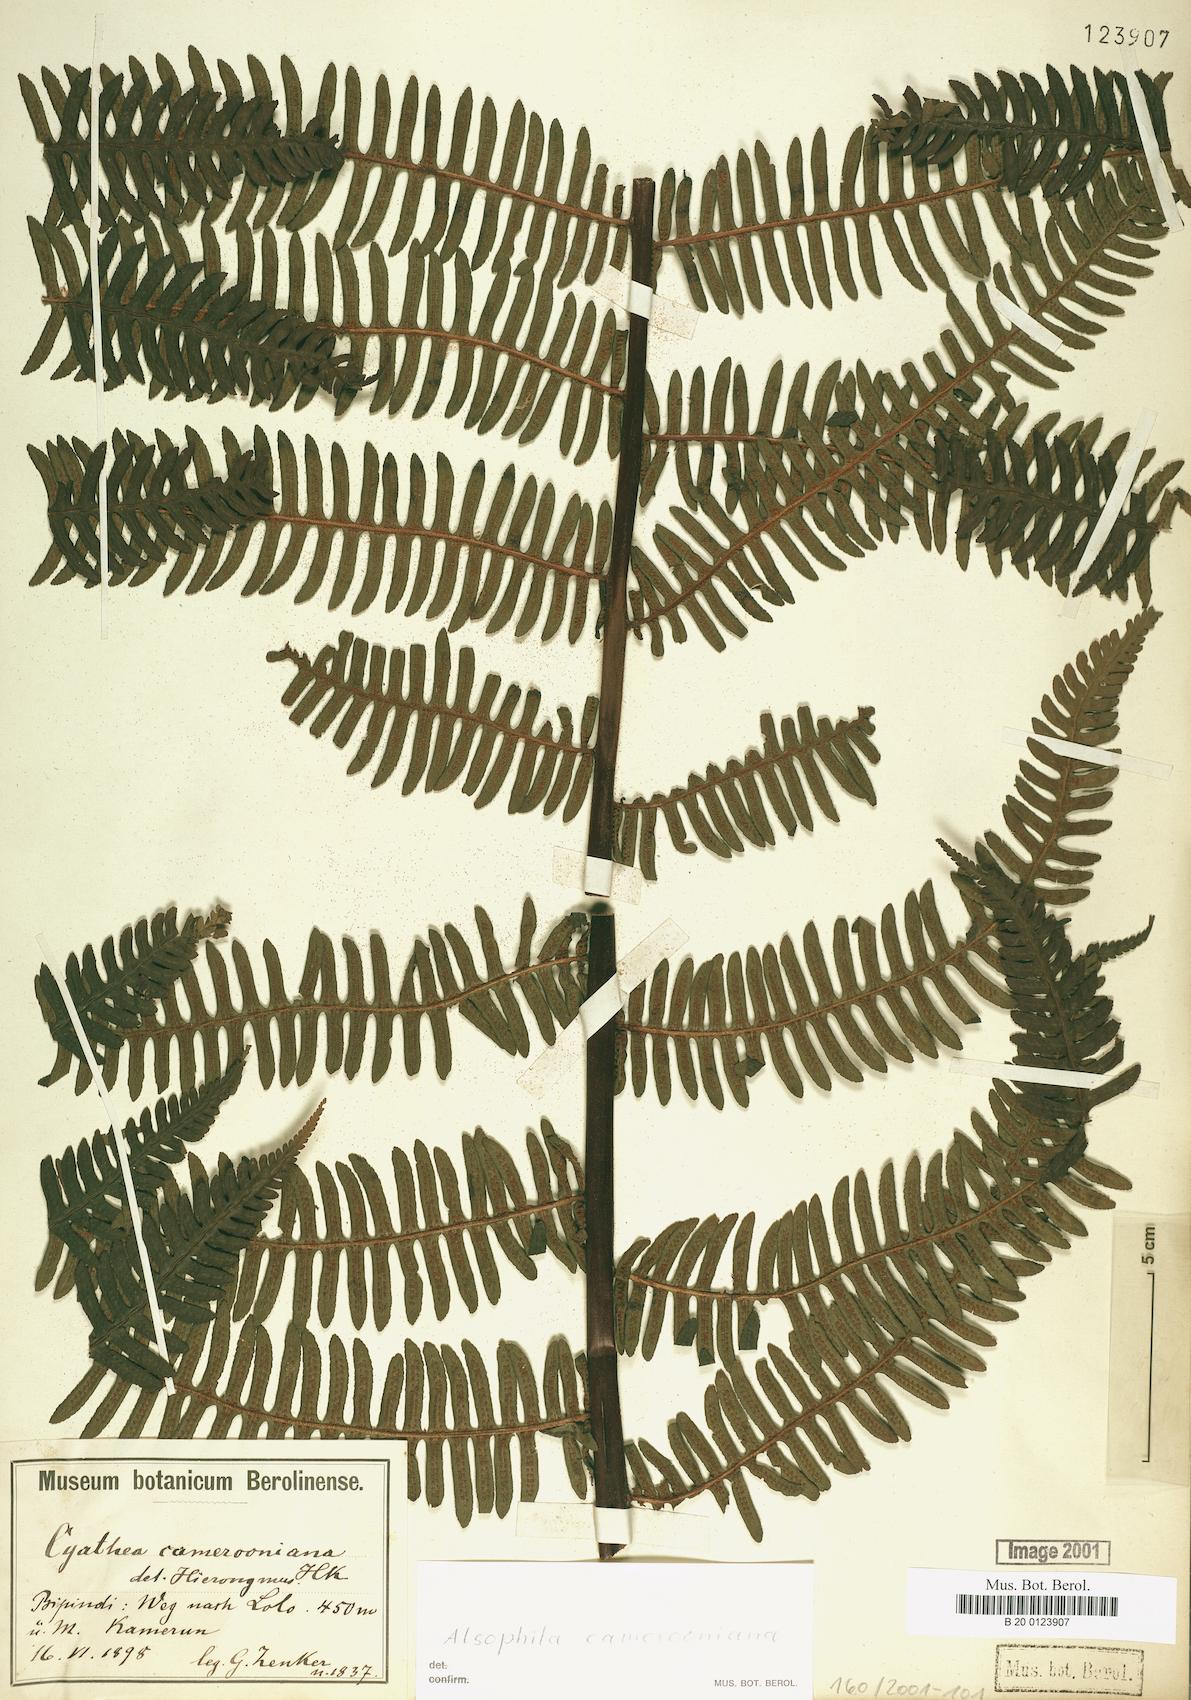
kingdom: Plantae
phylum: Tracheophyta
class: Polypodiopsida
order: Cyatheales
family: Cyatheaceae
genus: Alsophila
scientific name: Alsophila camerooniana
